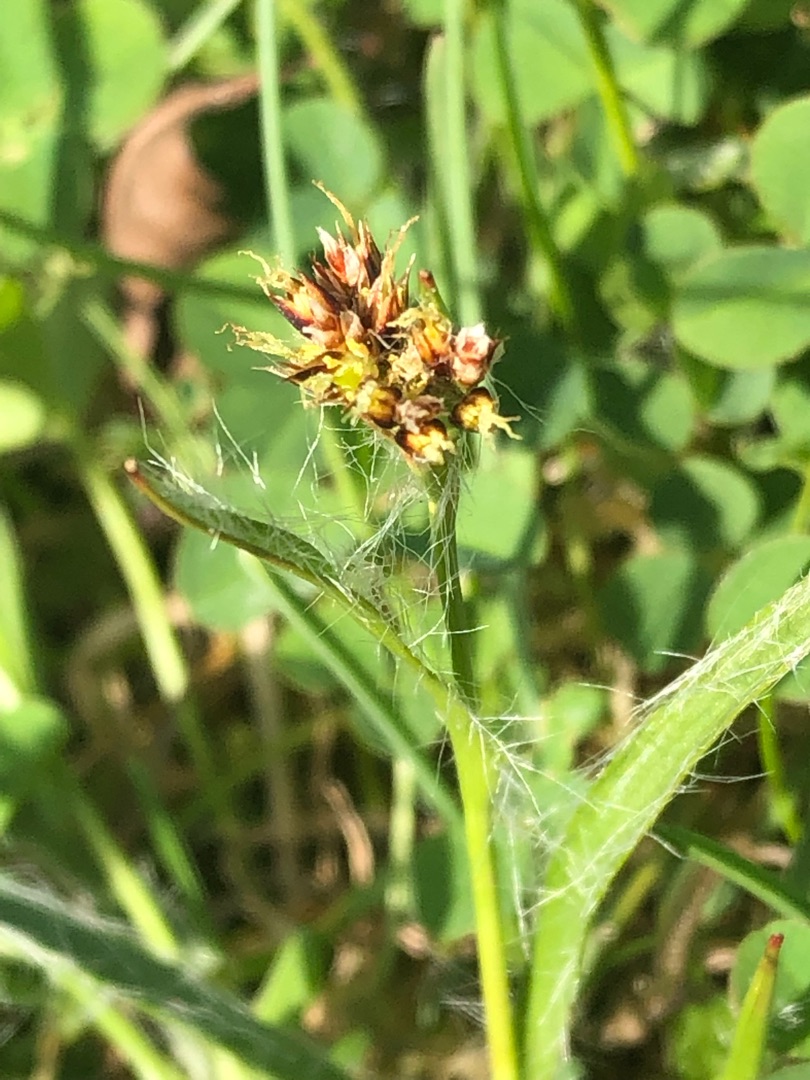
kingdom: Plantae
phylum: Tracheophyta
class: Liliopsida
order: Poales
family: Juncaceae
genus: Luzula
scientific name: Luzula campestris
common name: Mark-frytle
